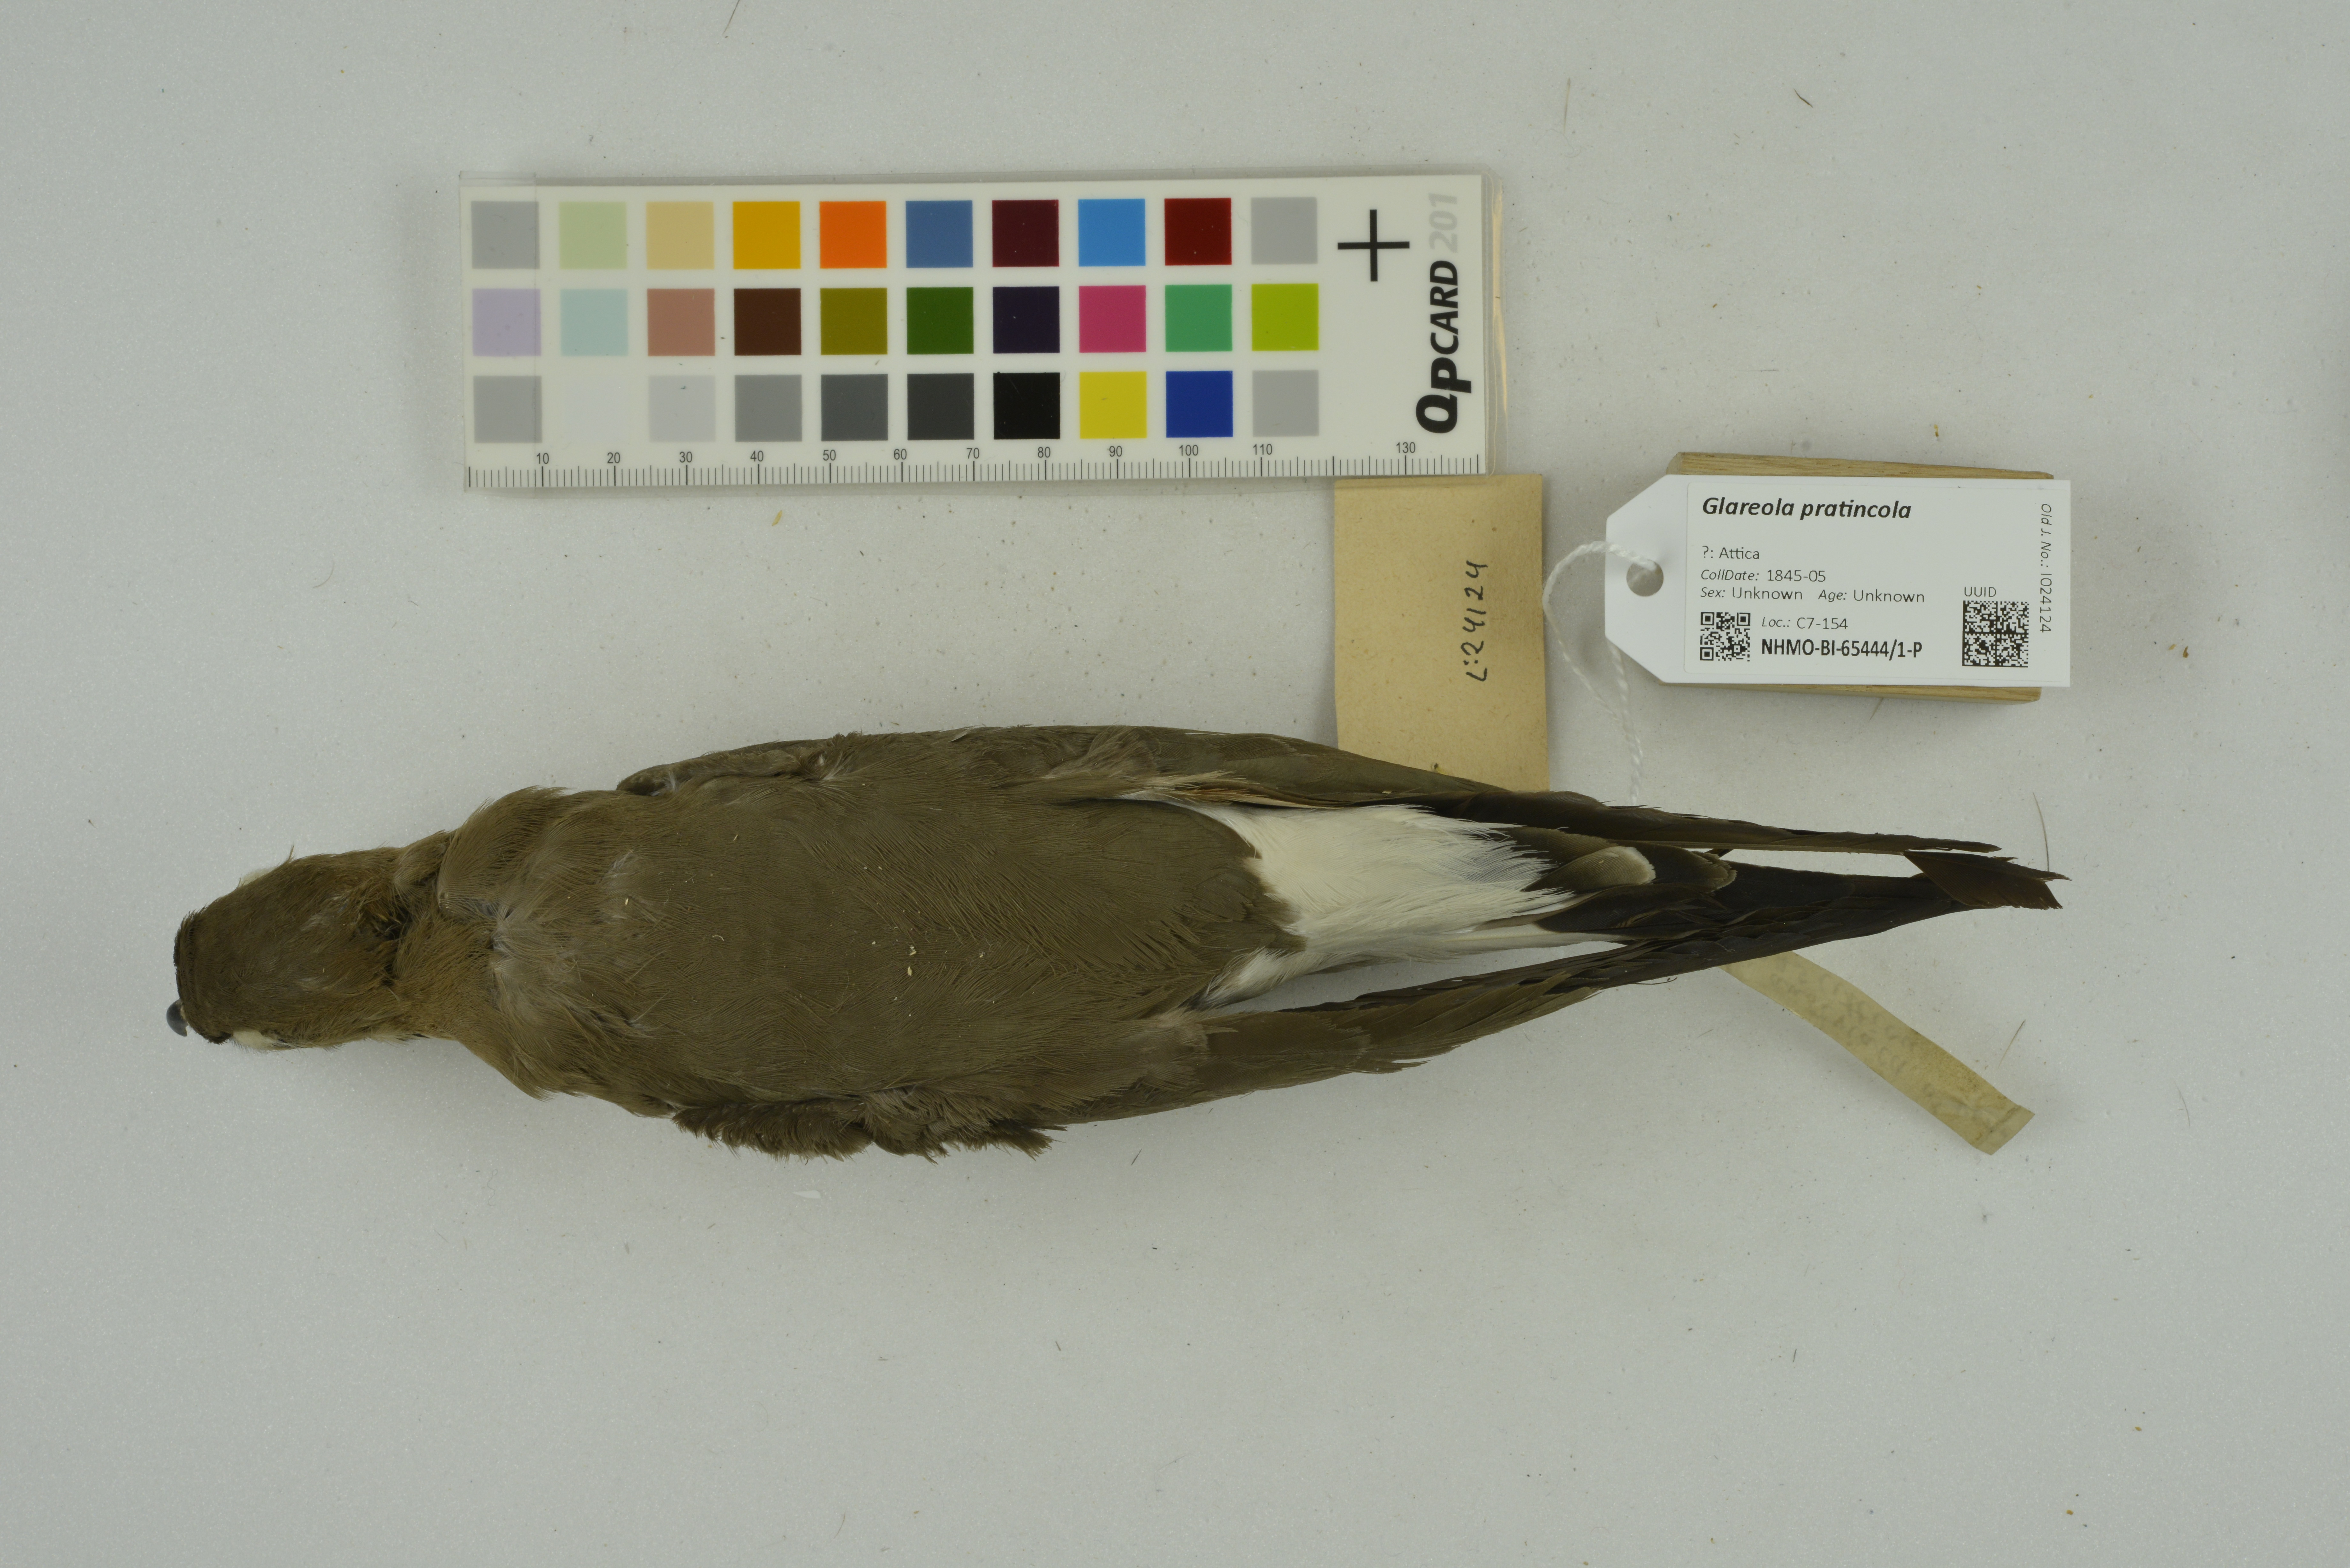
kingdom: Animalia
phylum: Chordata
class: Aves
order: Charadriiformes
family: Glareolidae
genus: Glareola
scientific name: Glareola pratincola
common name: Collared pratincole
